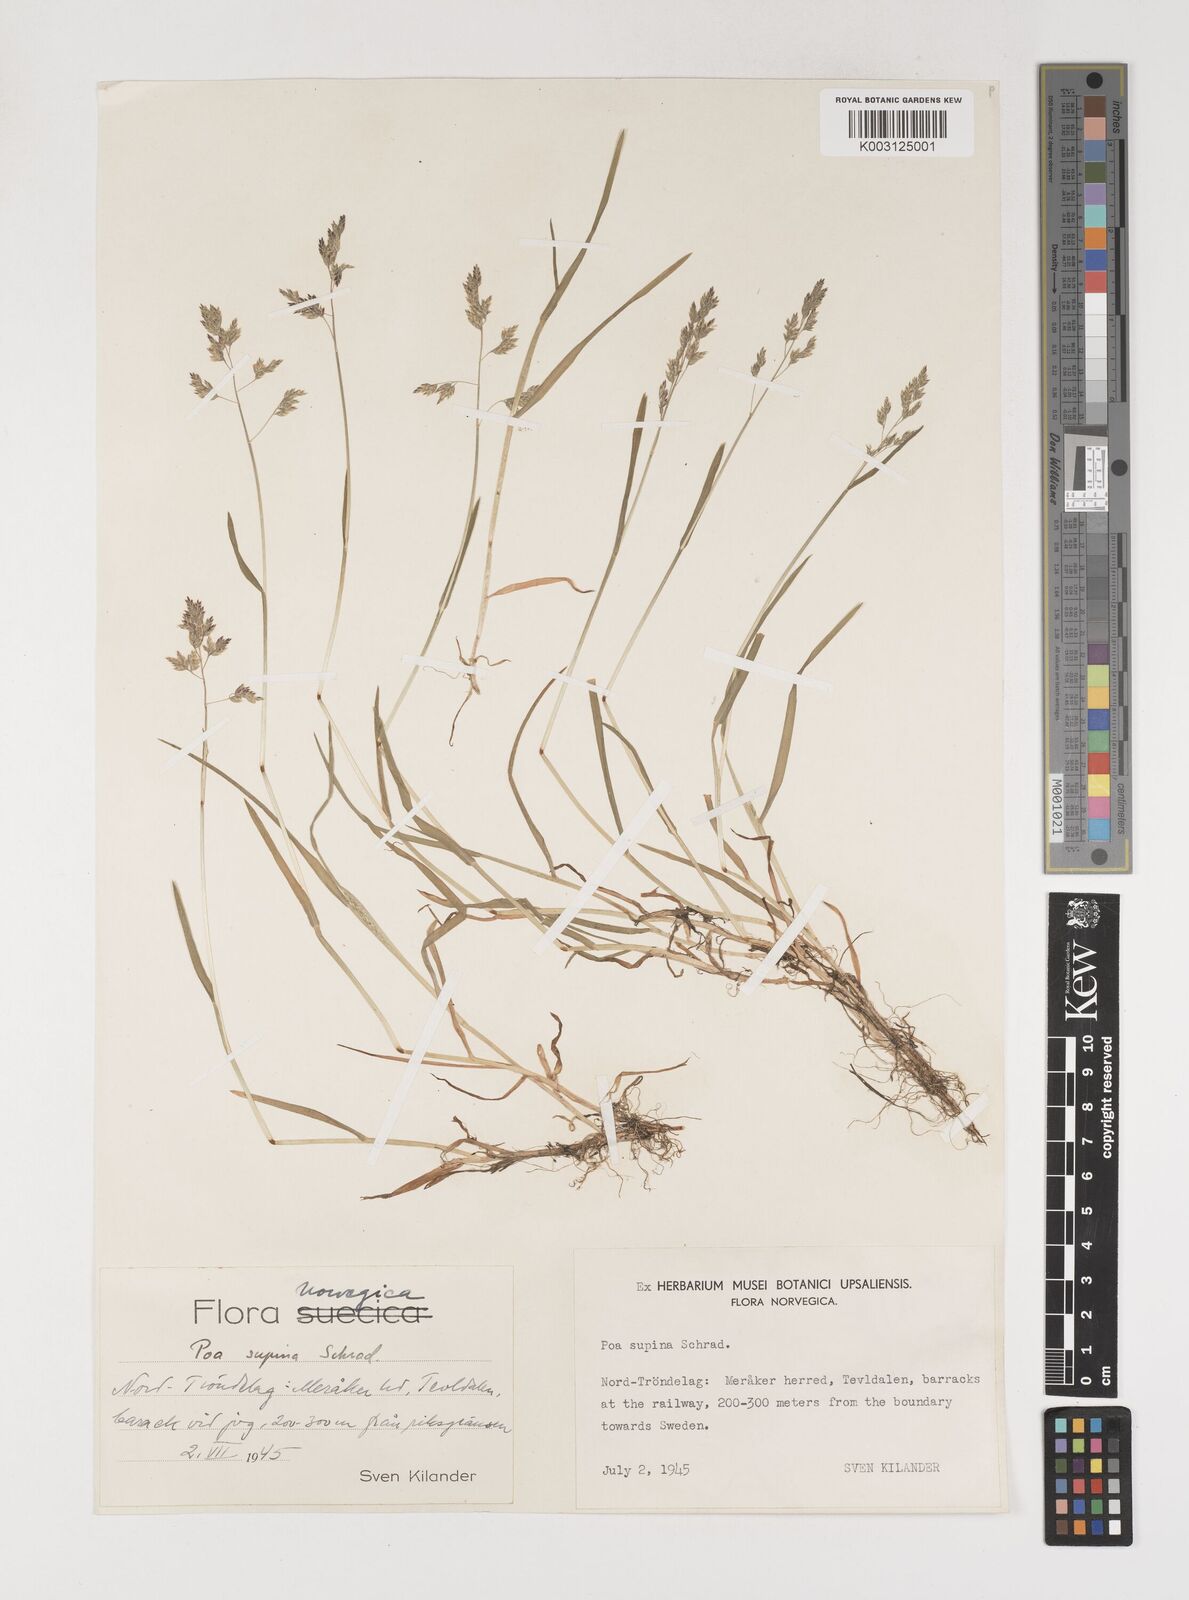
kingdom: Plantae
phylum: Tracheophyta
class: Liliopsida
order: Poales
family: Poaceae
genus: Poa
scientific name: Poa supina
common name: Supina bluegrass
